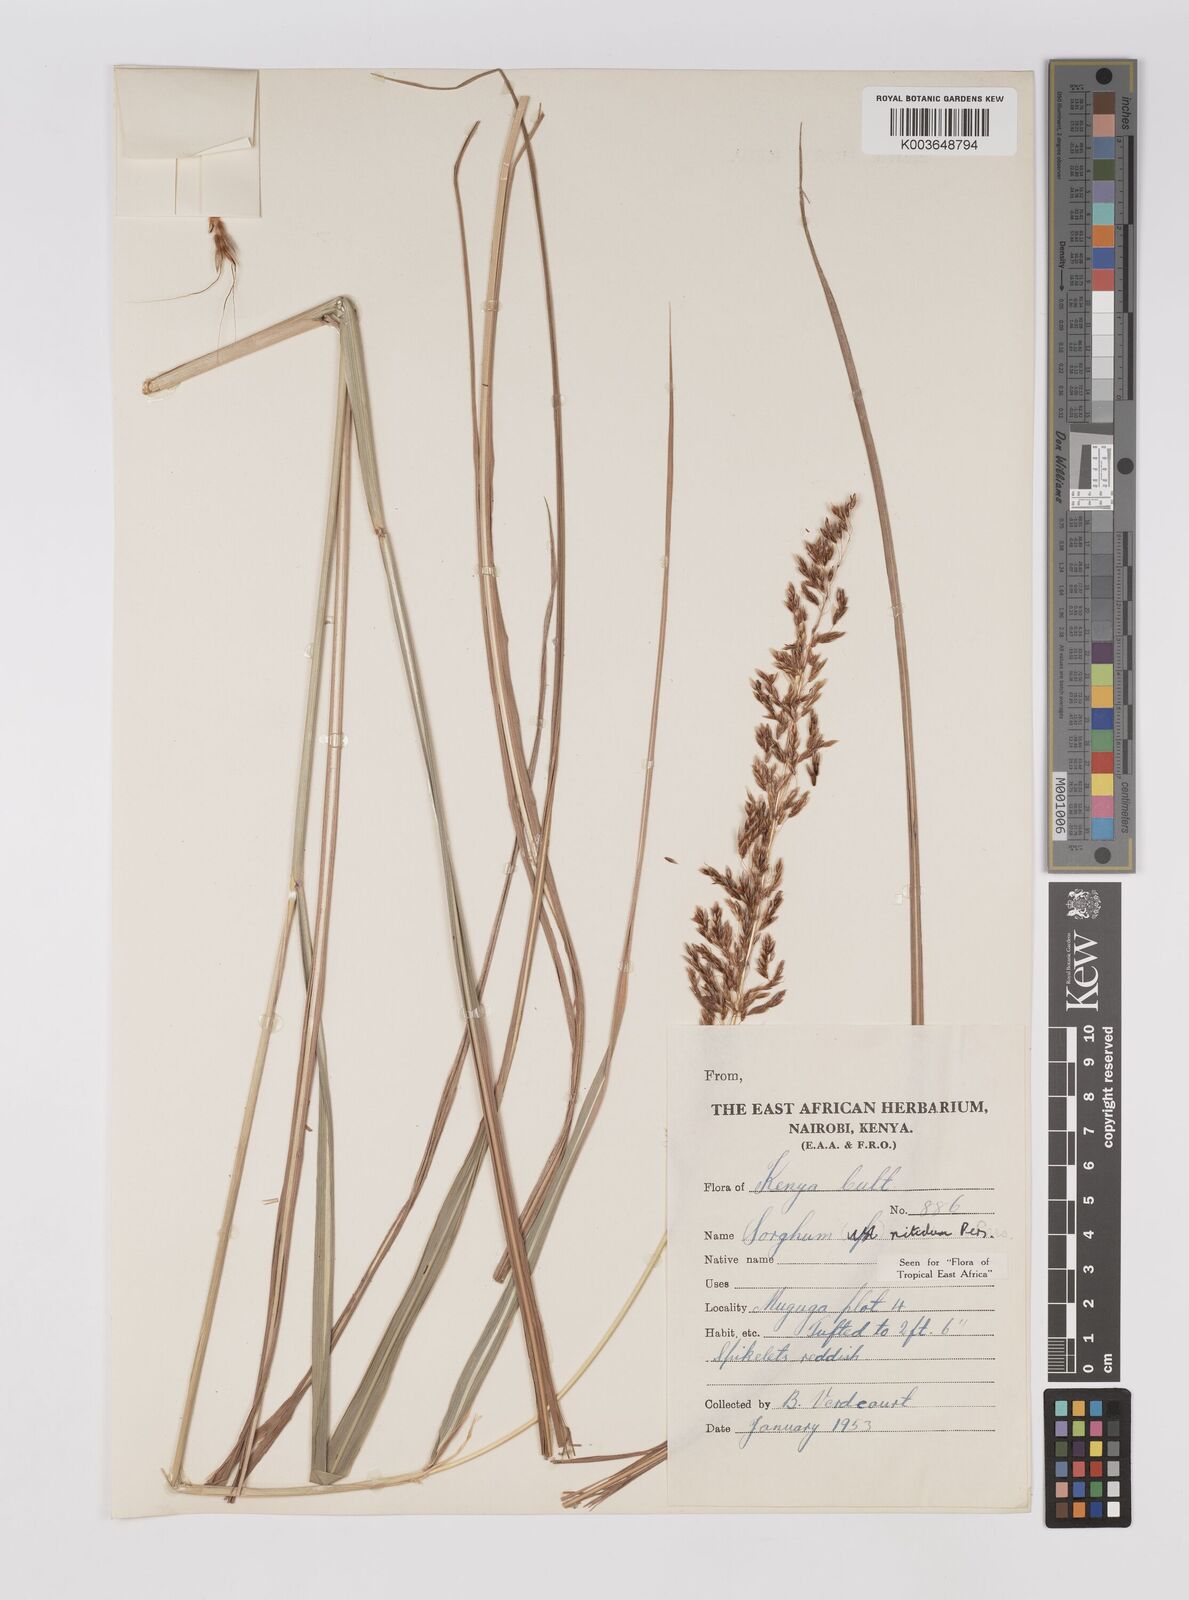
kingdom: Plantae
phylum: Tracheophyta
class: Liliopsida
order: Poales
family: Poaceae
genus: Sorghum
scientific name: Sorghum nitidum
